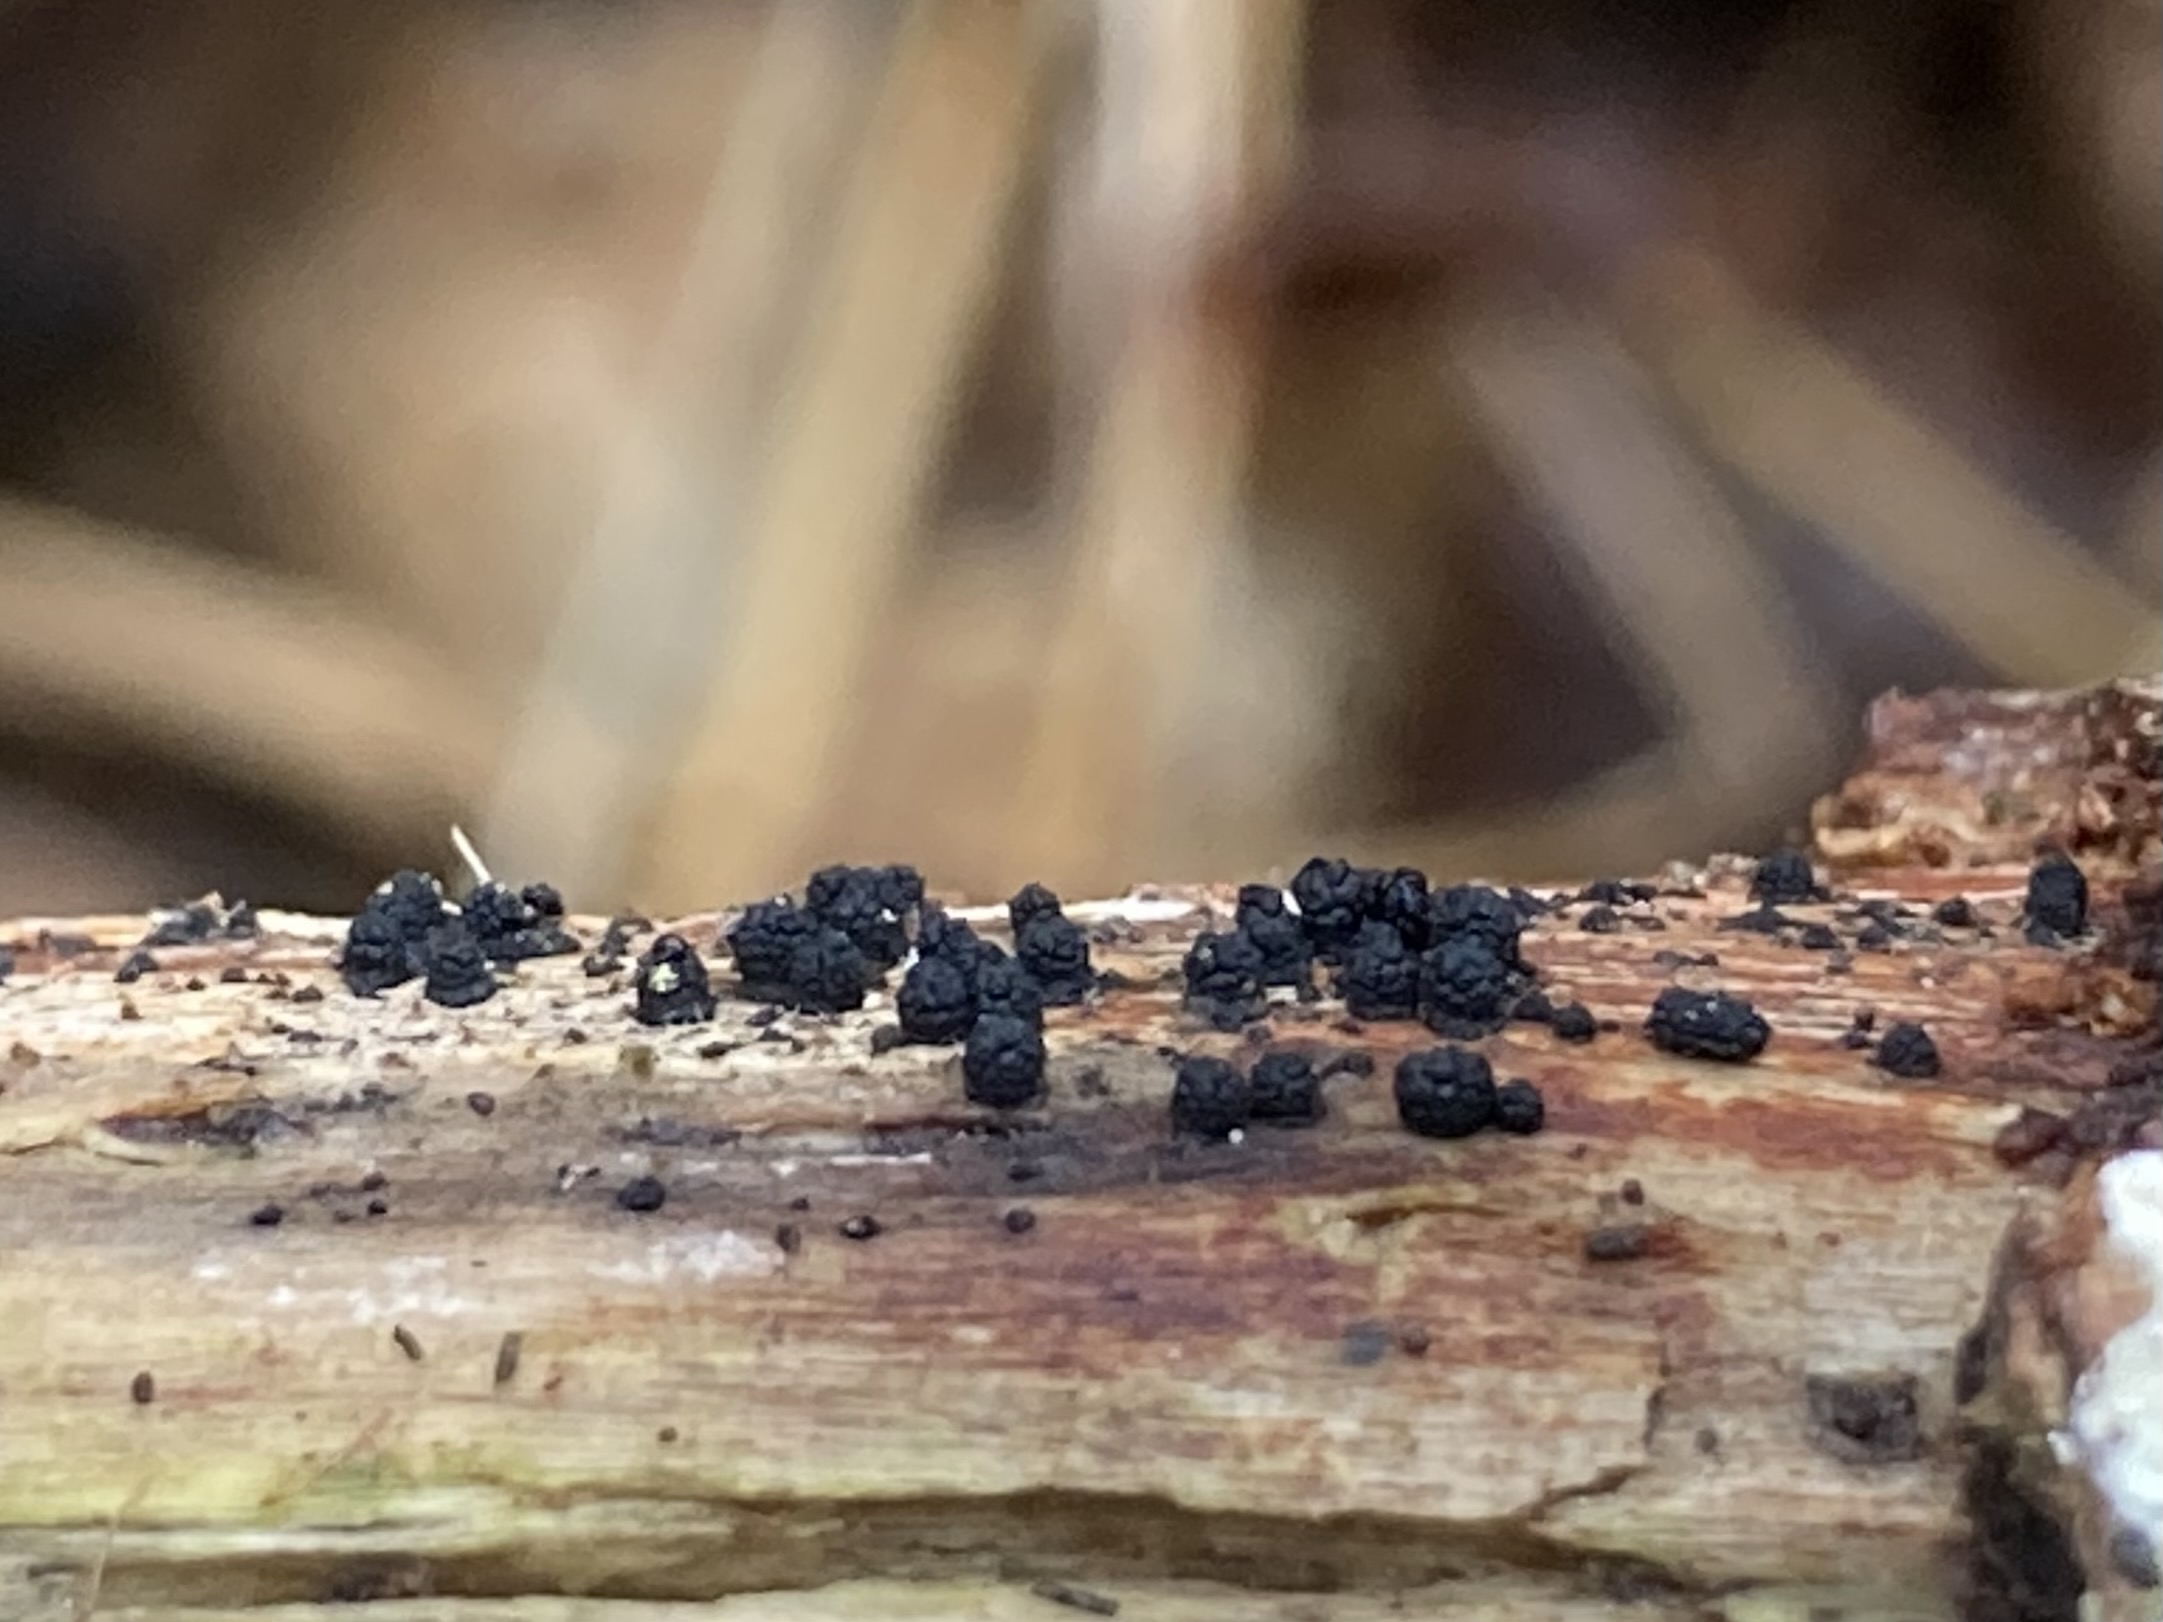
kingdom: Fungi
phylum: Ascomycota
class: Sordariomycetes
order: Coronophorales
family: Bertiaceae
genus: Bertia
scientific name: Bertia moriformis
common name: almindelig morbærkerne
